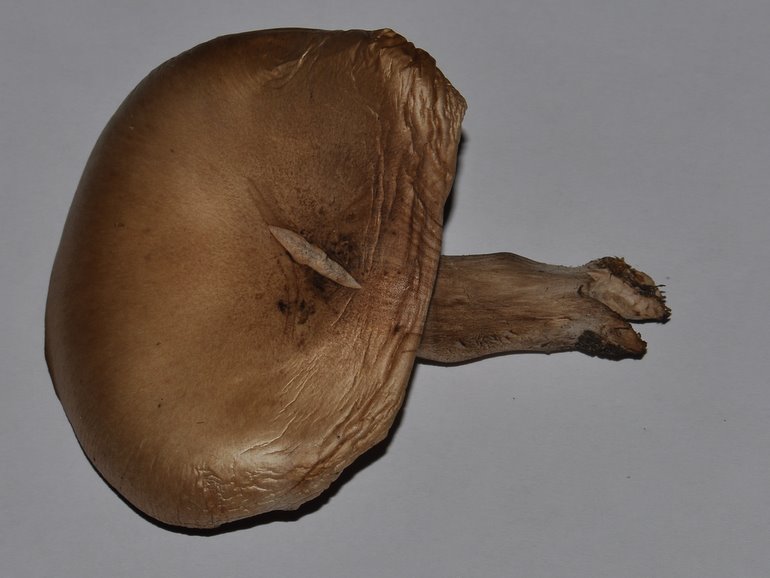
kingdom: Fungi
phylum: Basidiomycota
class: Agaricomycetes
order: Agaricales
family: Tricholomataceae
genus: Lepista
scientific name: Lepista panaeolus
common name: marmoreret hekseringshat
